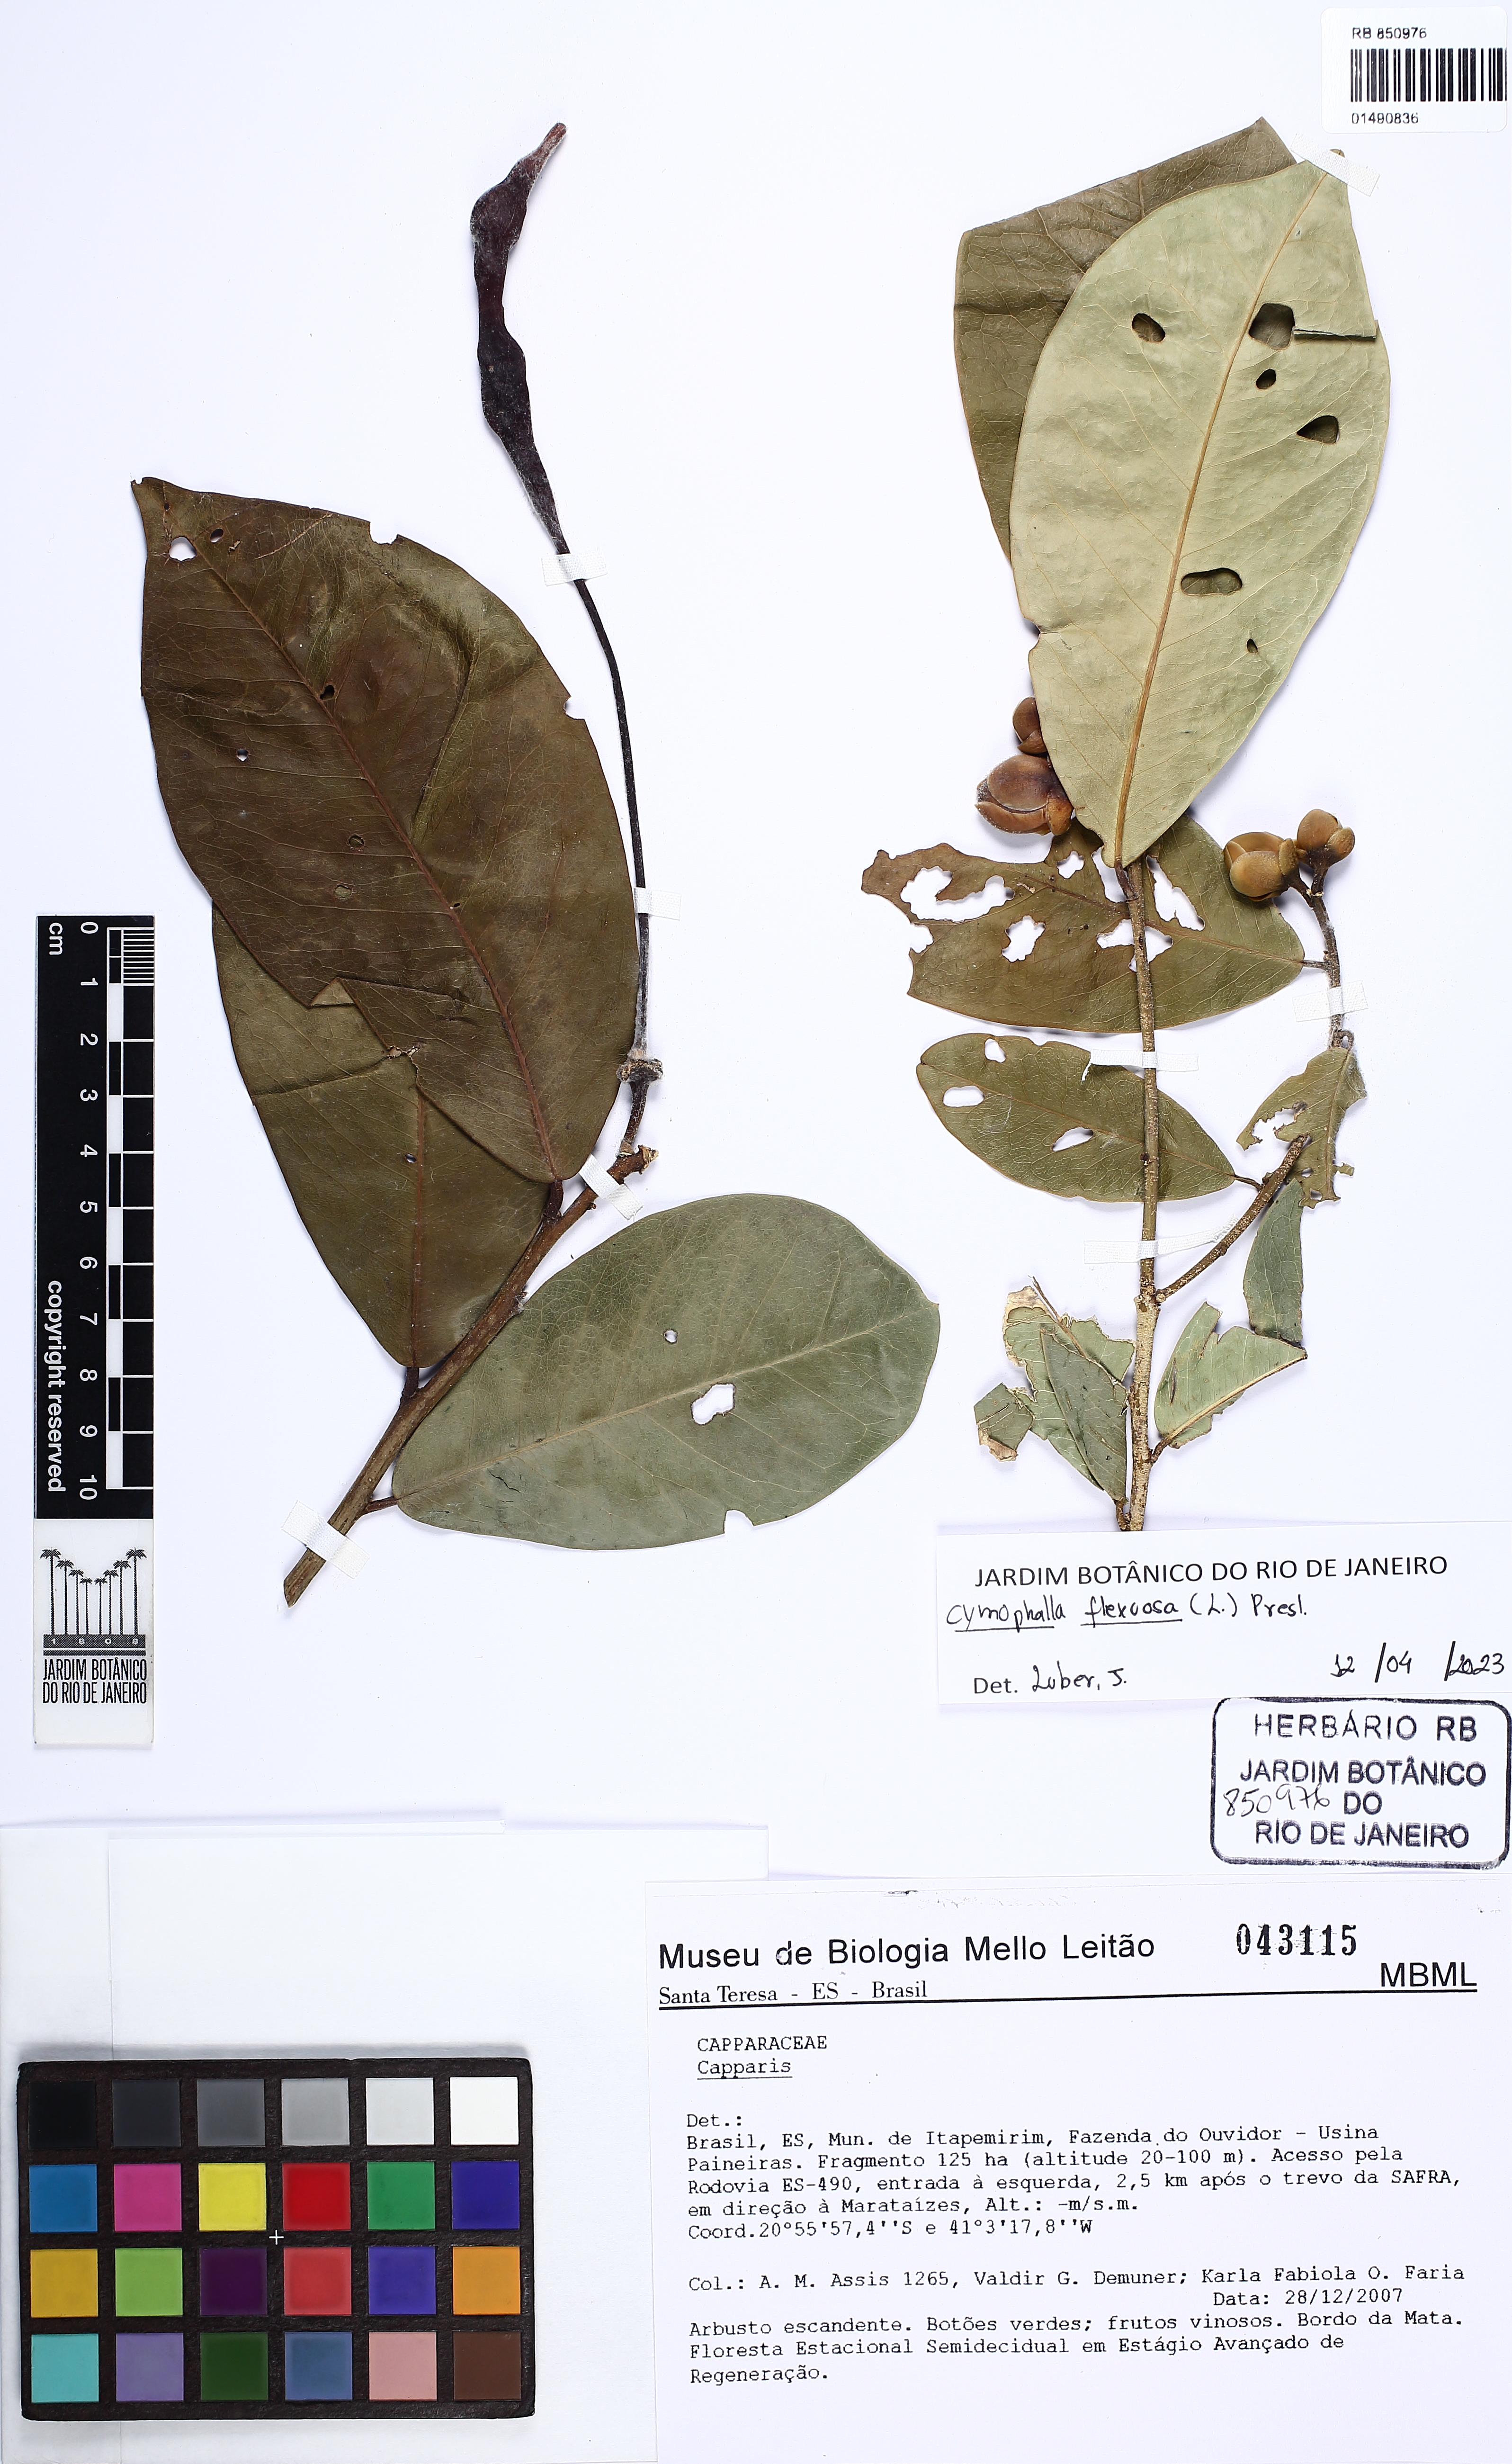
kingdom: Plantae
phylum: Tracheophyta
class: Magnoliopsida
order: Brassicales
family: Capparaceae
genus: Cynophalla
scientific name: Cynophalla flexuosa
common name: Capertree
